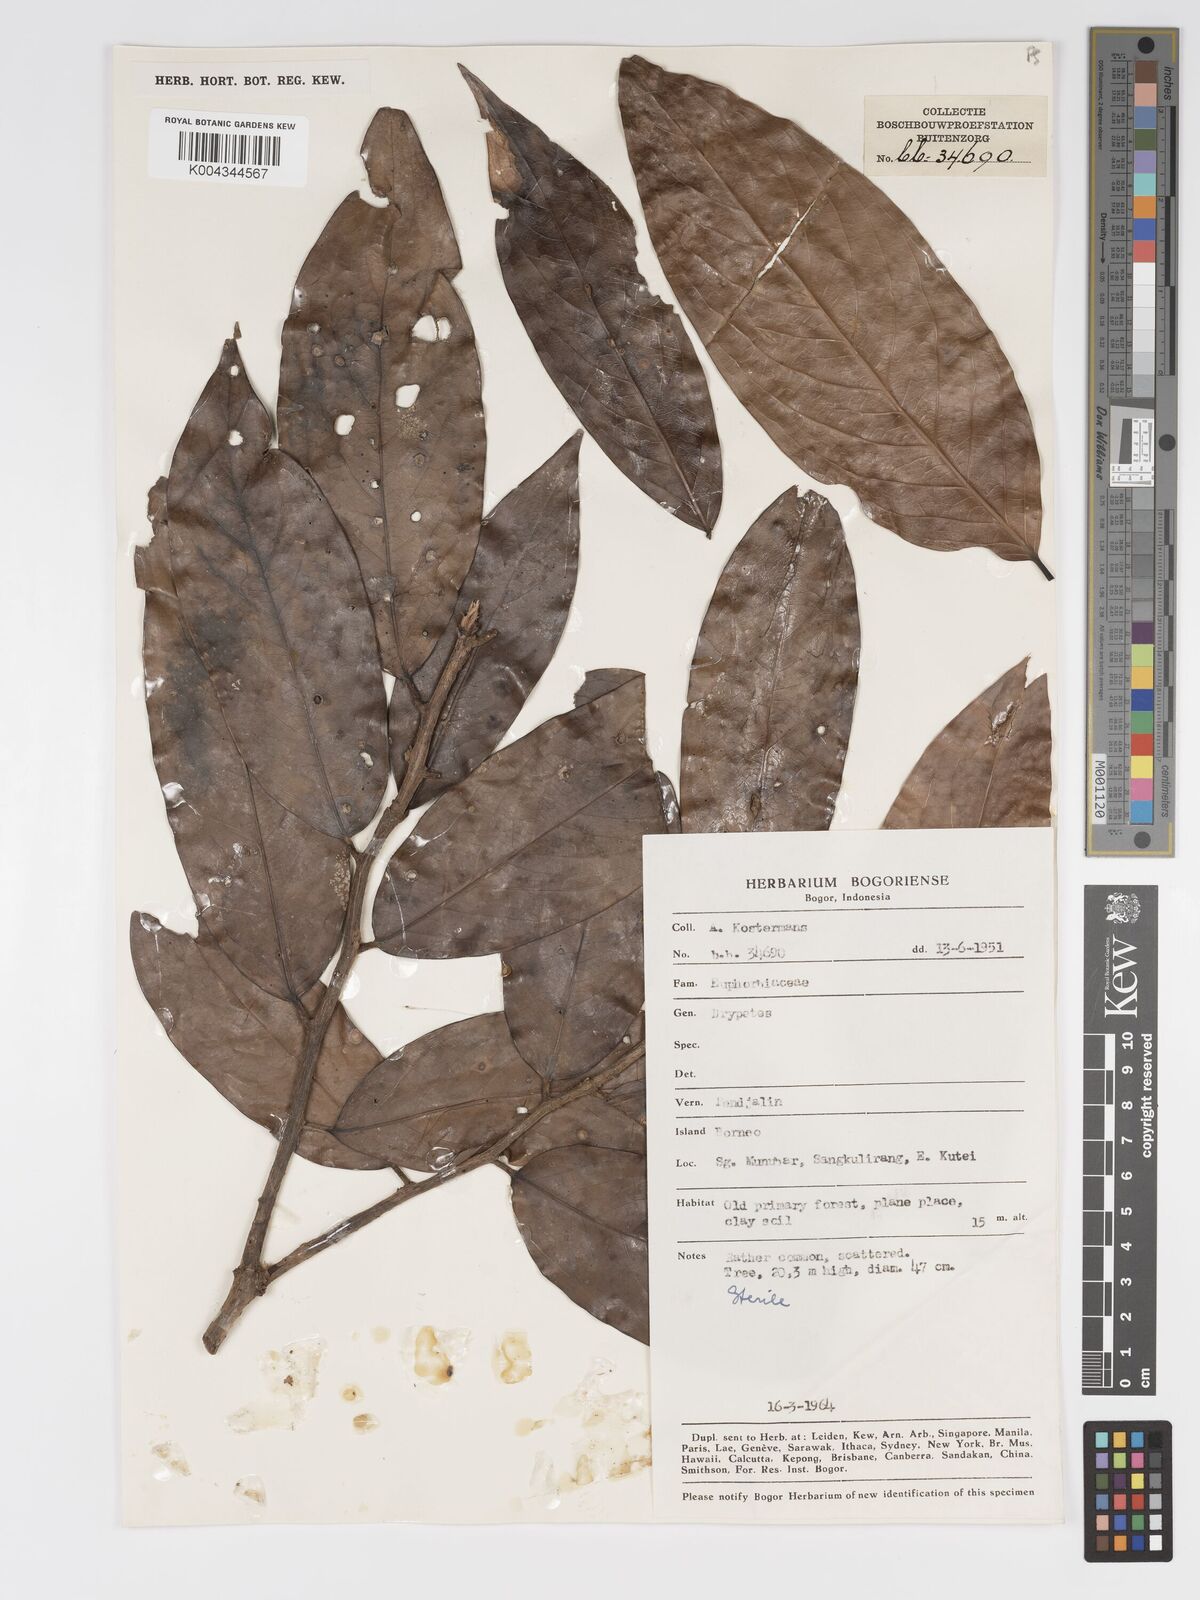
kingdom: Plantae
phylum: Tracheophyta
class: Magnoliopsida
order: Malpighiales
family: Putranjivaceae
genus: Drypetes
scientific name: Drypetes neglecta
